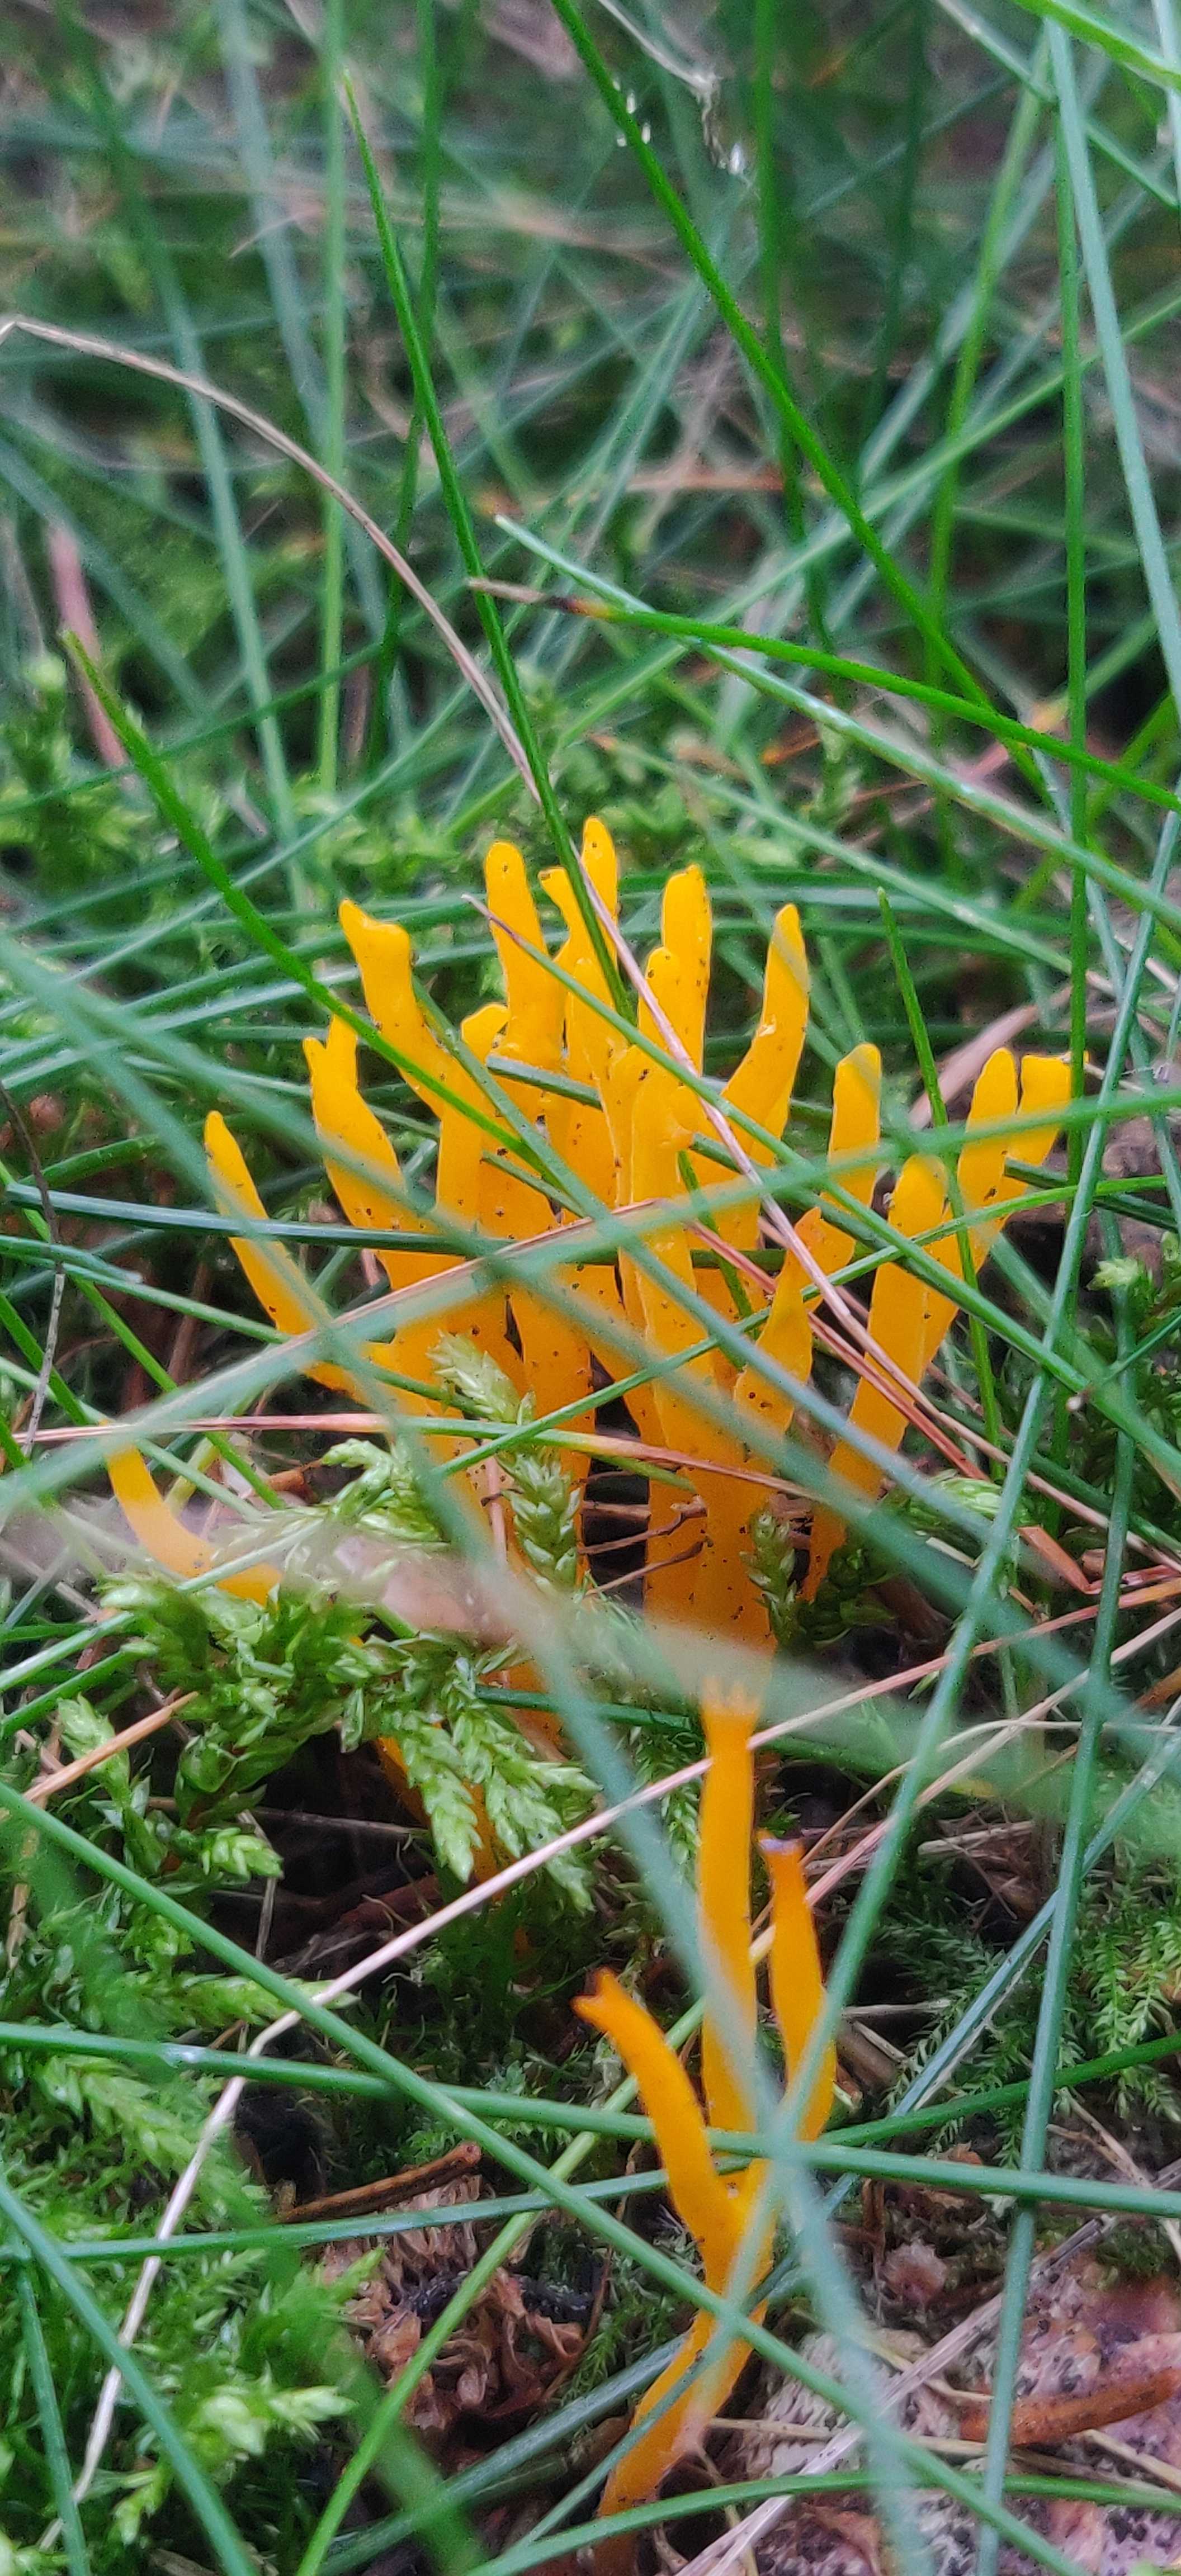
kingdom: Fungi
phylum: Basidiomycota
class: Dacrymycetes
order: Dacrymycetales
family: Dacrymycetaceae
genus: Calocera
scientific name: Calocera viscosa
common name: almindelig guldgaffel
